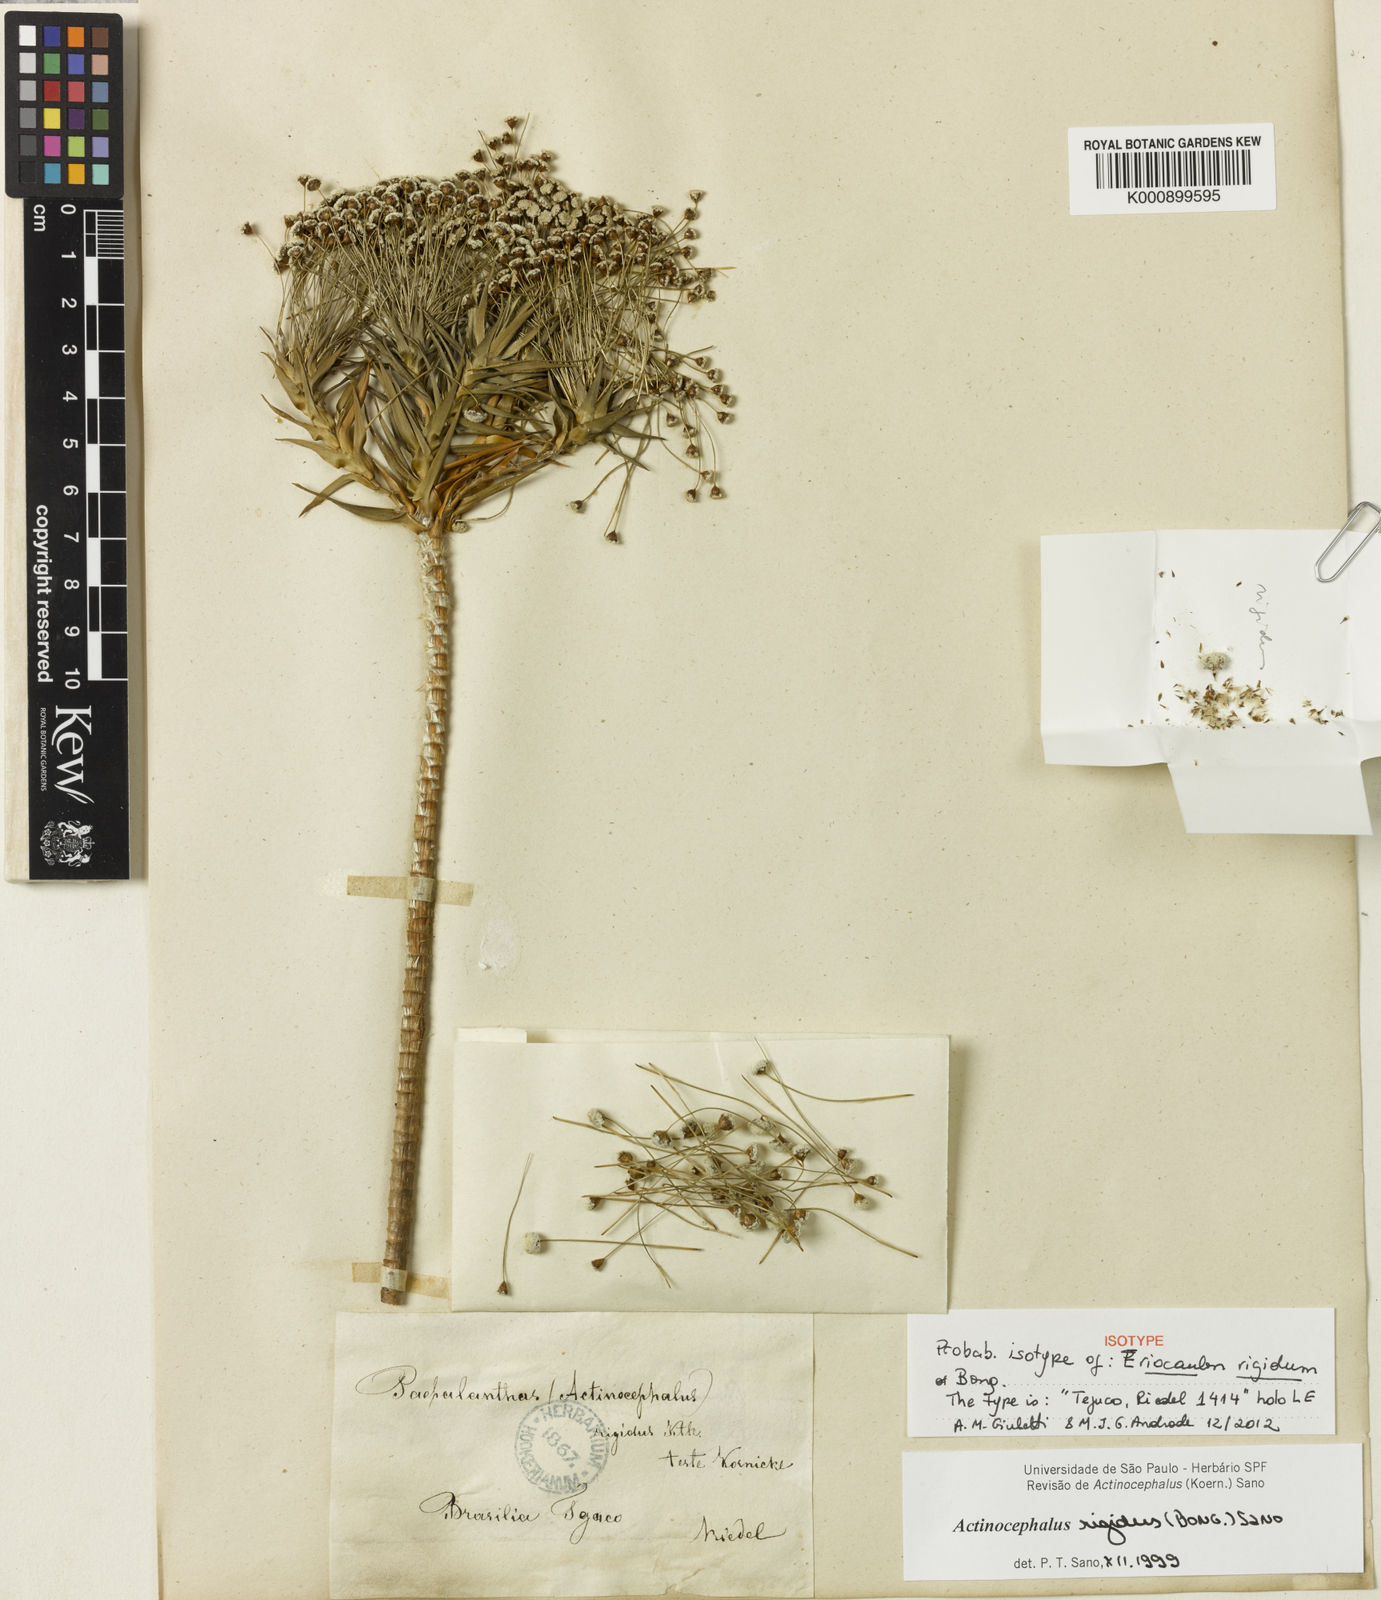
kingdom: Plantae
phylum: Tracheophyta
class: Liliopsida
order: Poales
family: Eriocaulaceae
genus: Paepalanthus
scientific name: Paepalanthus rigidus
